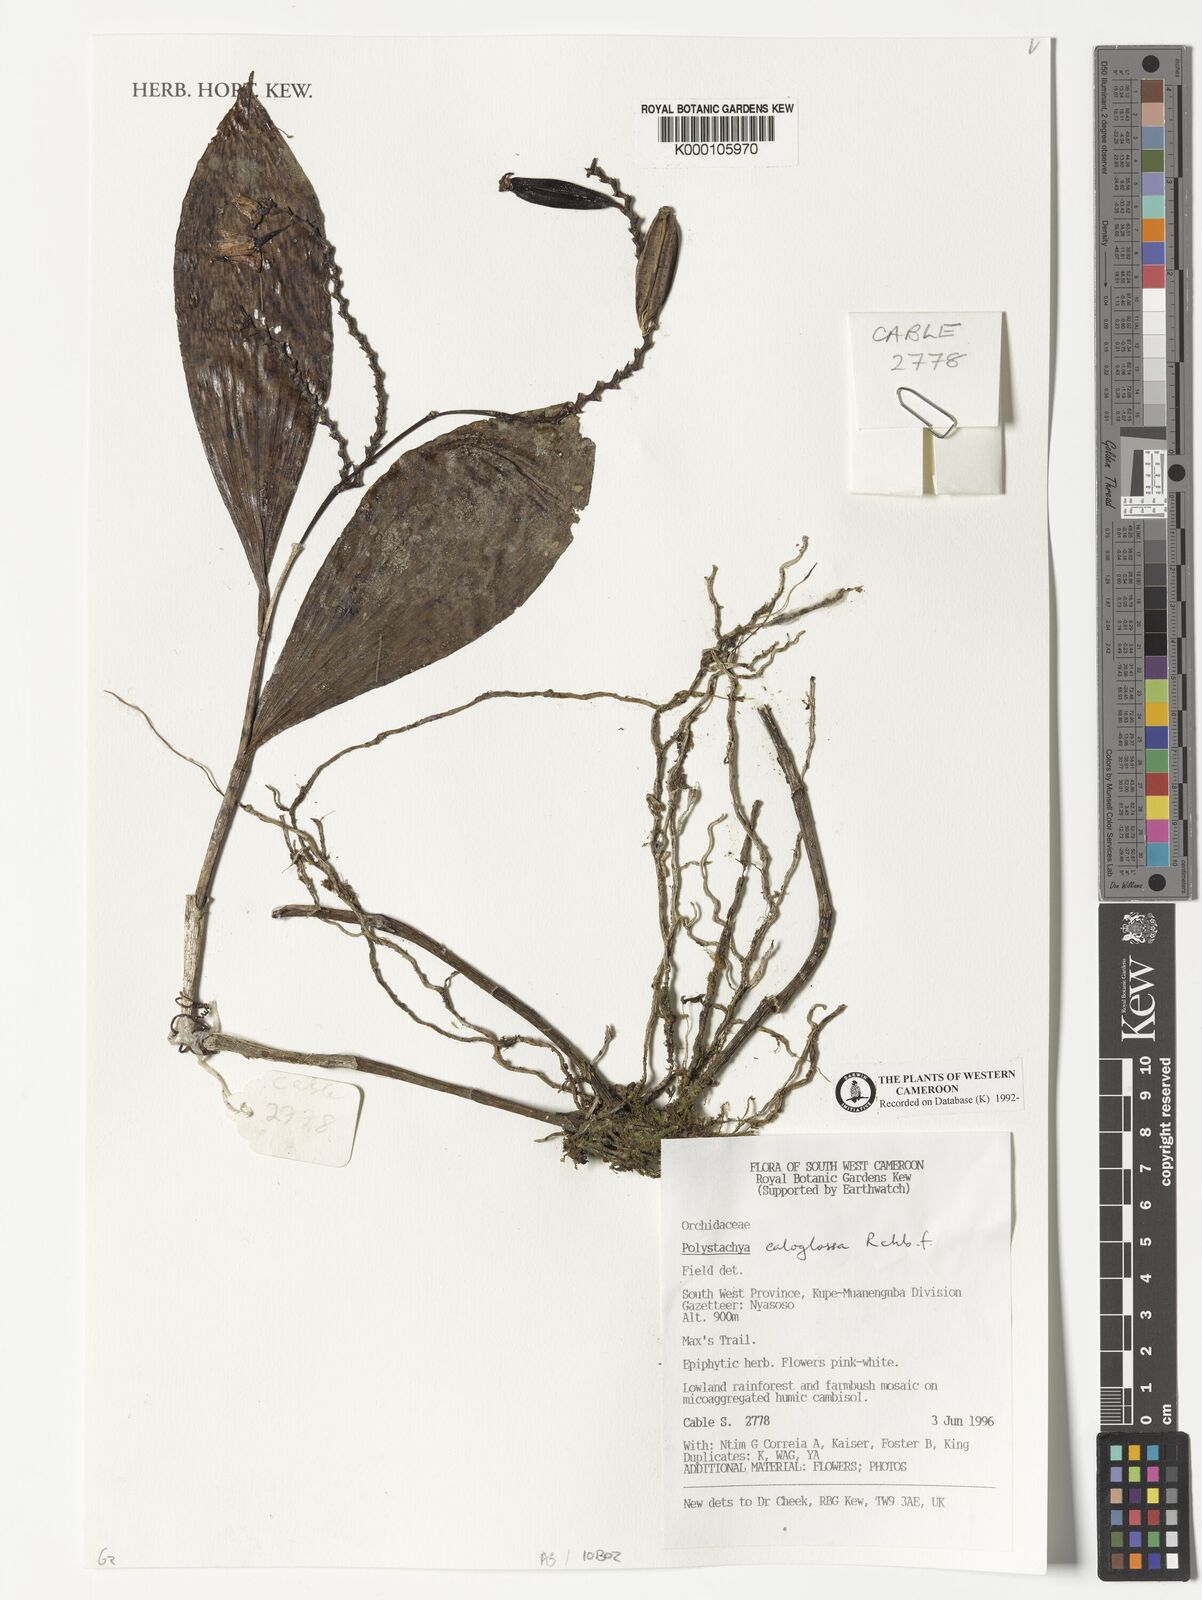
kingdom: Plantae
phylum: Tracheophyta
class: Liliopsida
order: Asparagales
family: Orchidaceae
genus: Polystachya
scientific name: Polystachya caloglossa
